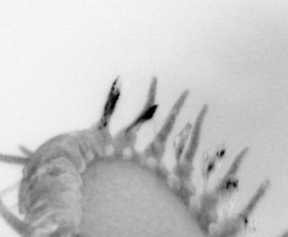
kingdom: Animalia
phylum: Annelida
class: Polychaeta
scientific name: Polychaeta
